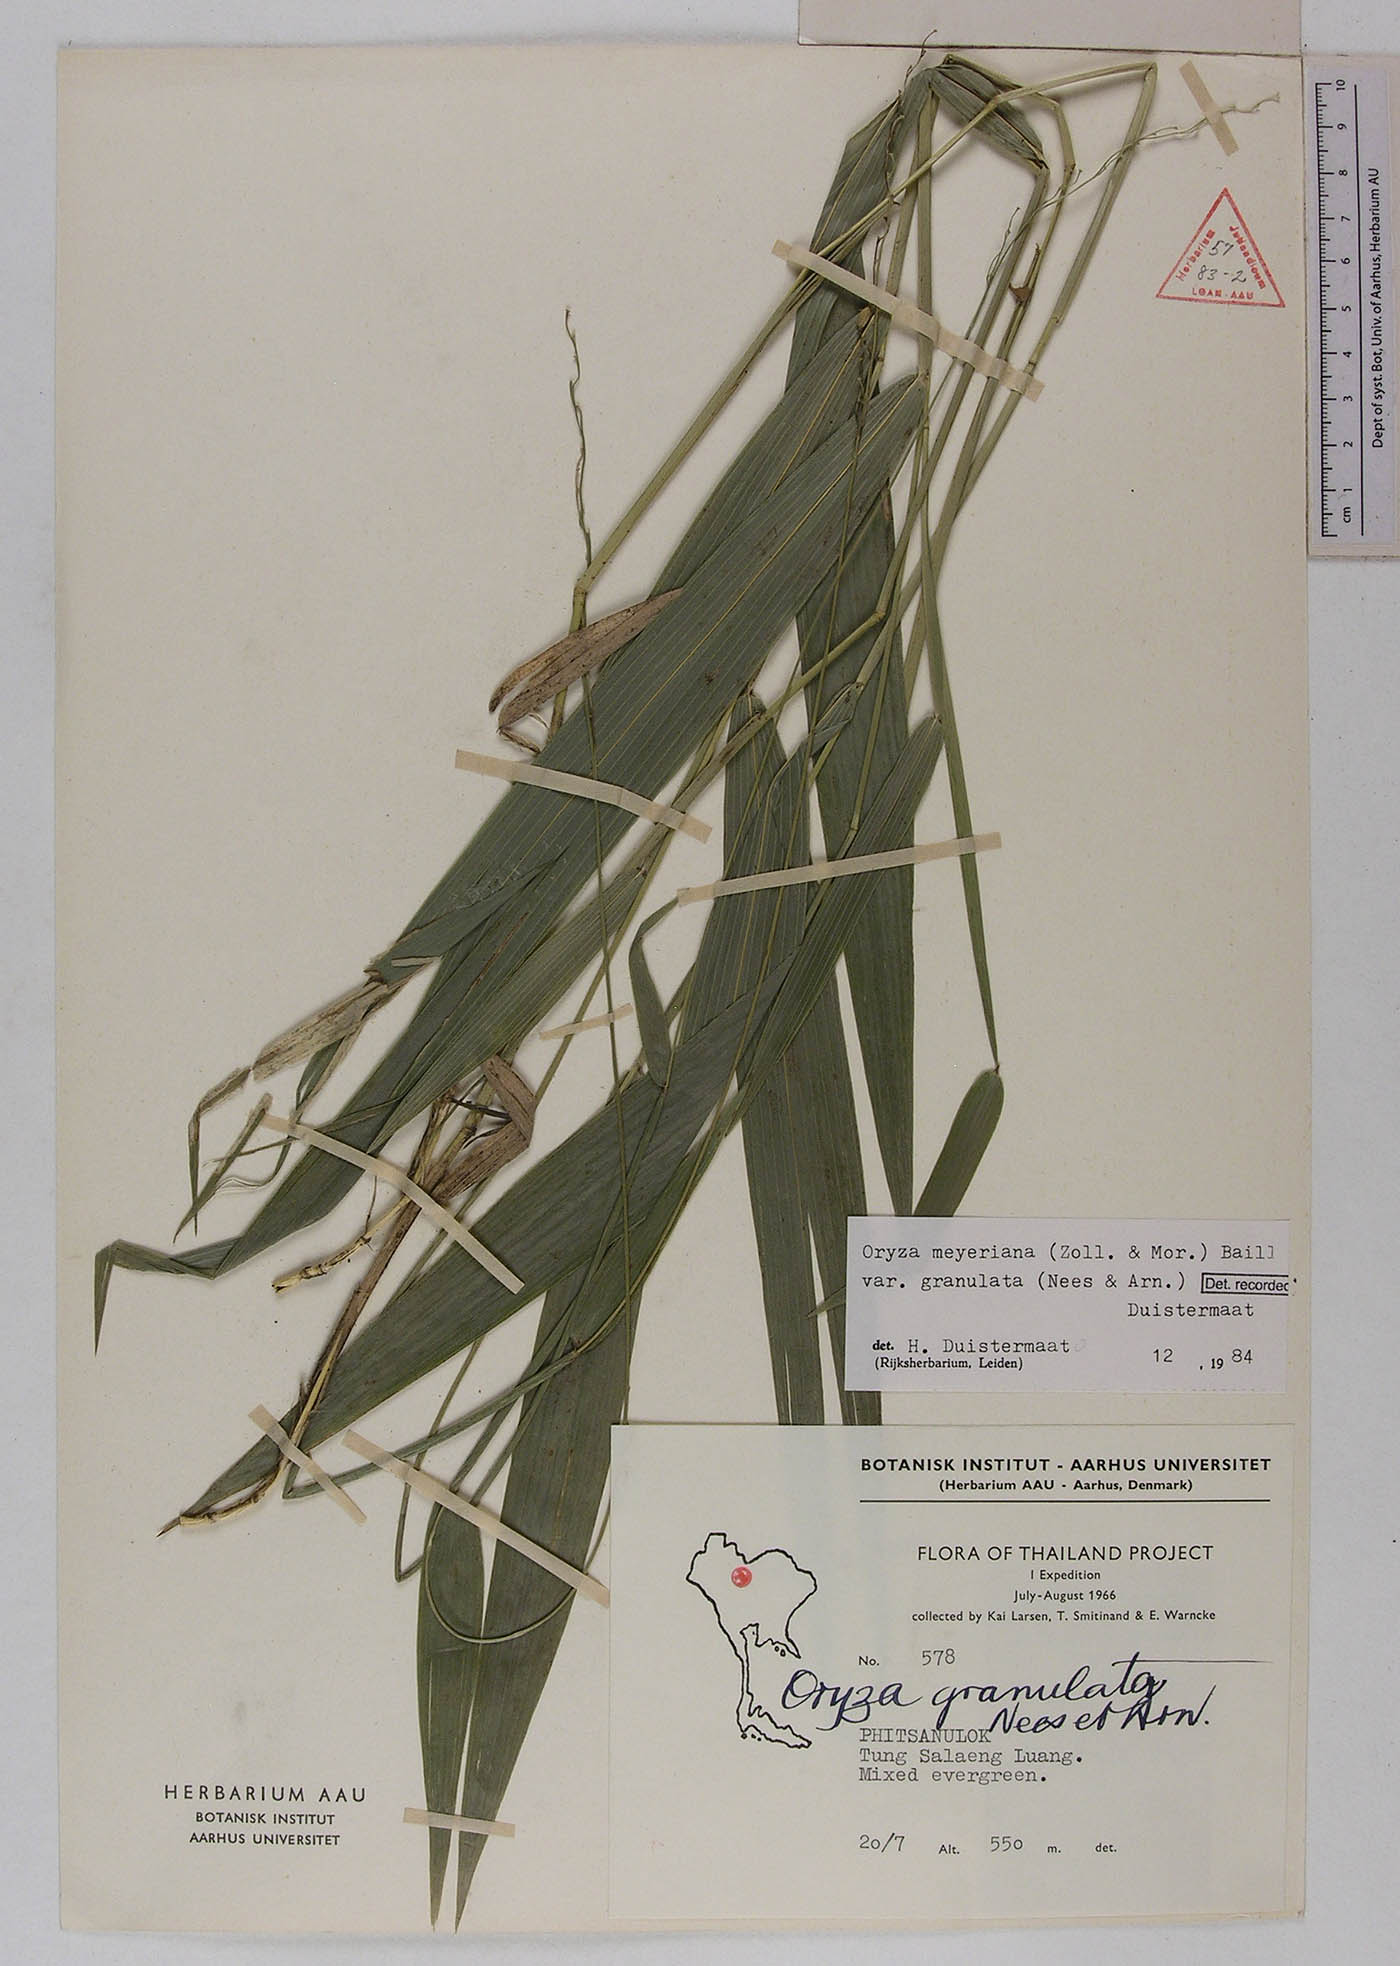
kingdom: Plantae
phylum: Tracheophyta
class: Liliopsida
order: Poales
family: Poaceae
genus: Oryza
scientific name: Oryza meyeriana
